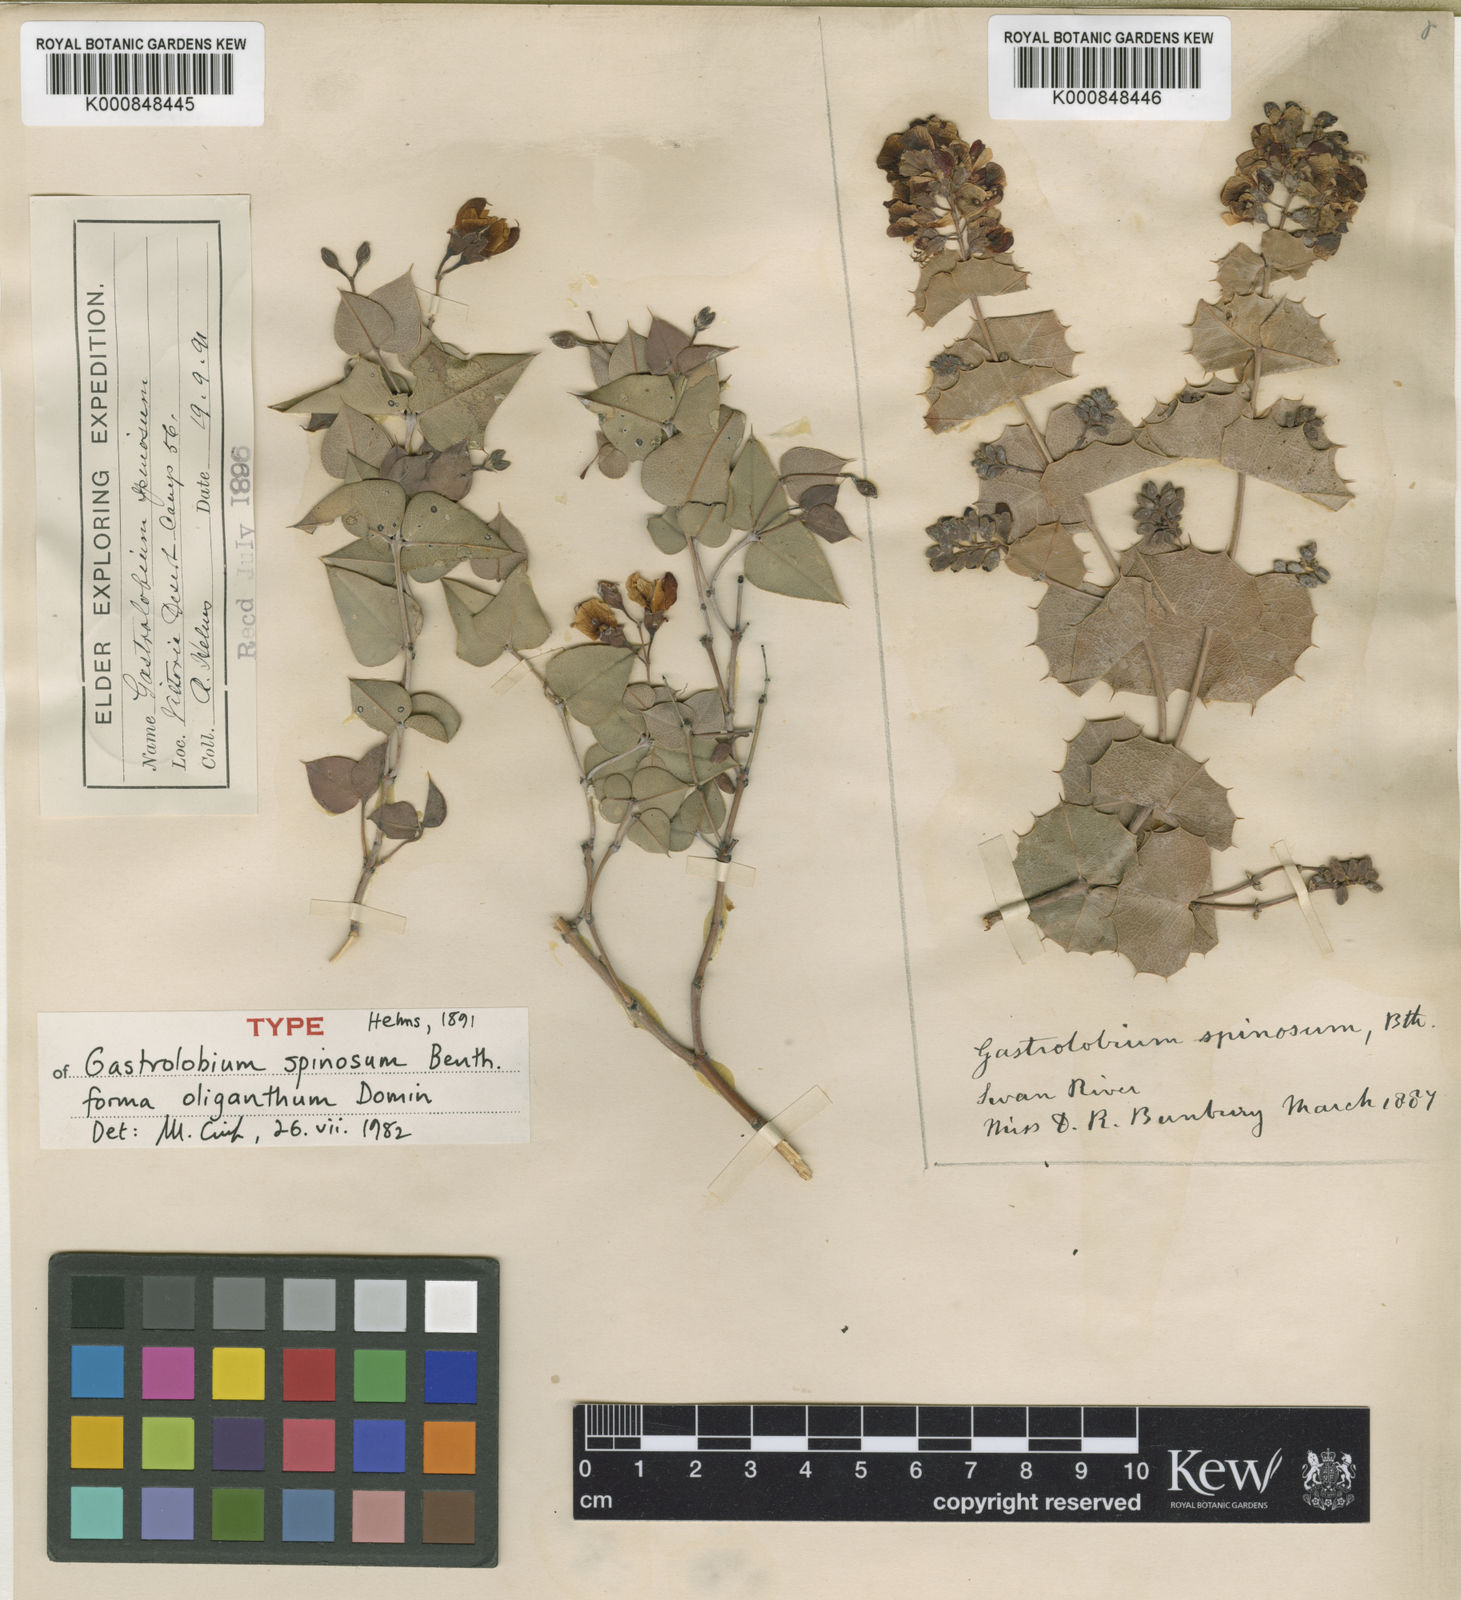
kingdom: Plantae
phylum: Tracheophyta
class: Magnoliopsida
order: Fabales
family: Fabaceae
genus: Gastrolobium
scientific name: Gastrolobium spinosum
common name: Prickly poison
